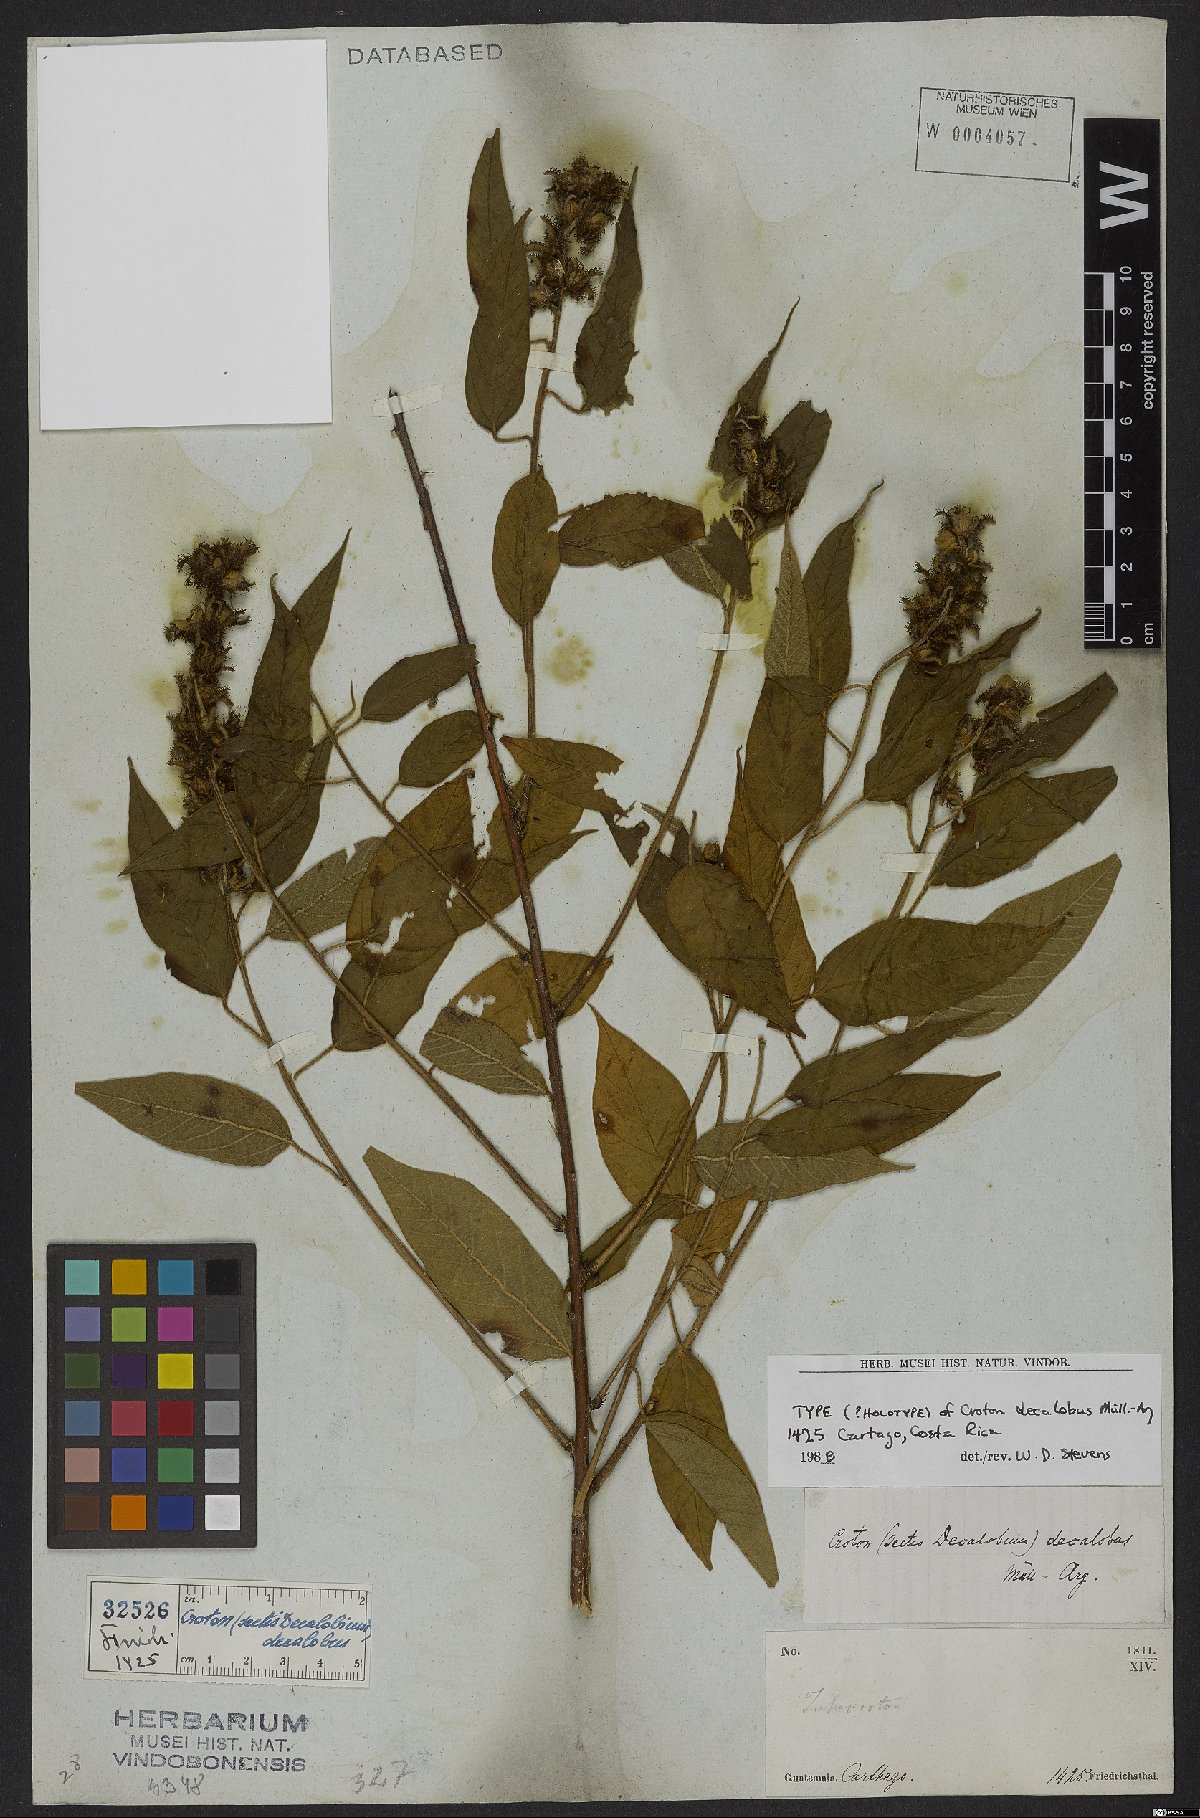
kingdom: Plantae
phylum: Tracheophyta
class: Magnoliopsida
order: Malpighiales
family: Euphorbiaceae
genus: Croton
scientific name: Croton decalobus
